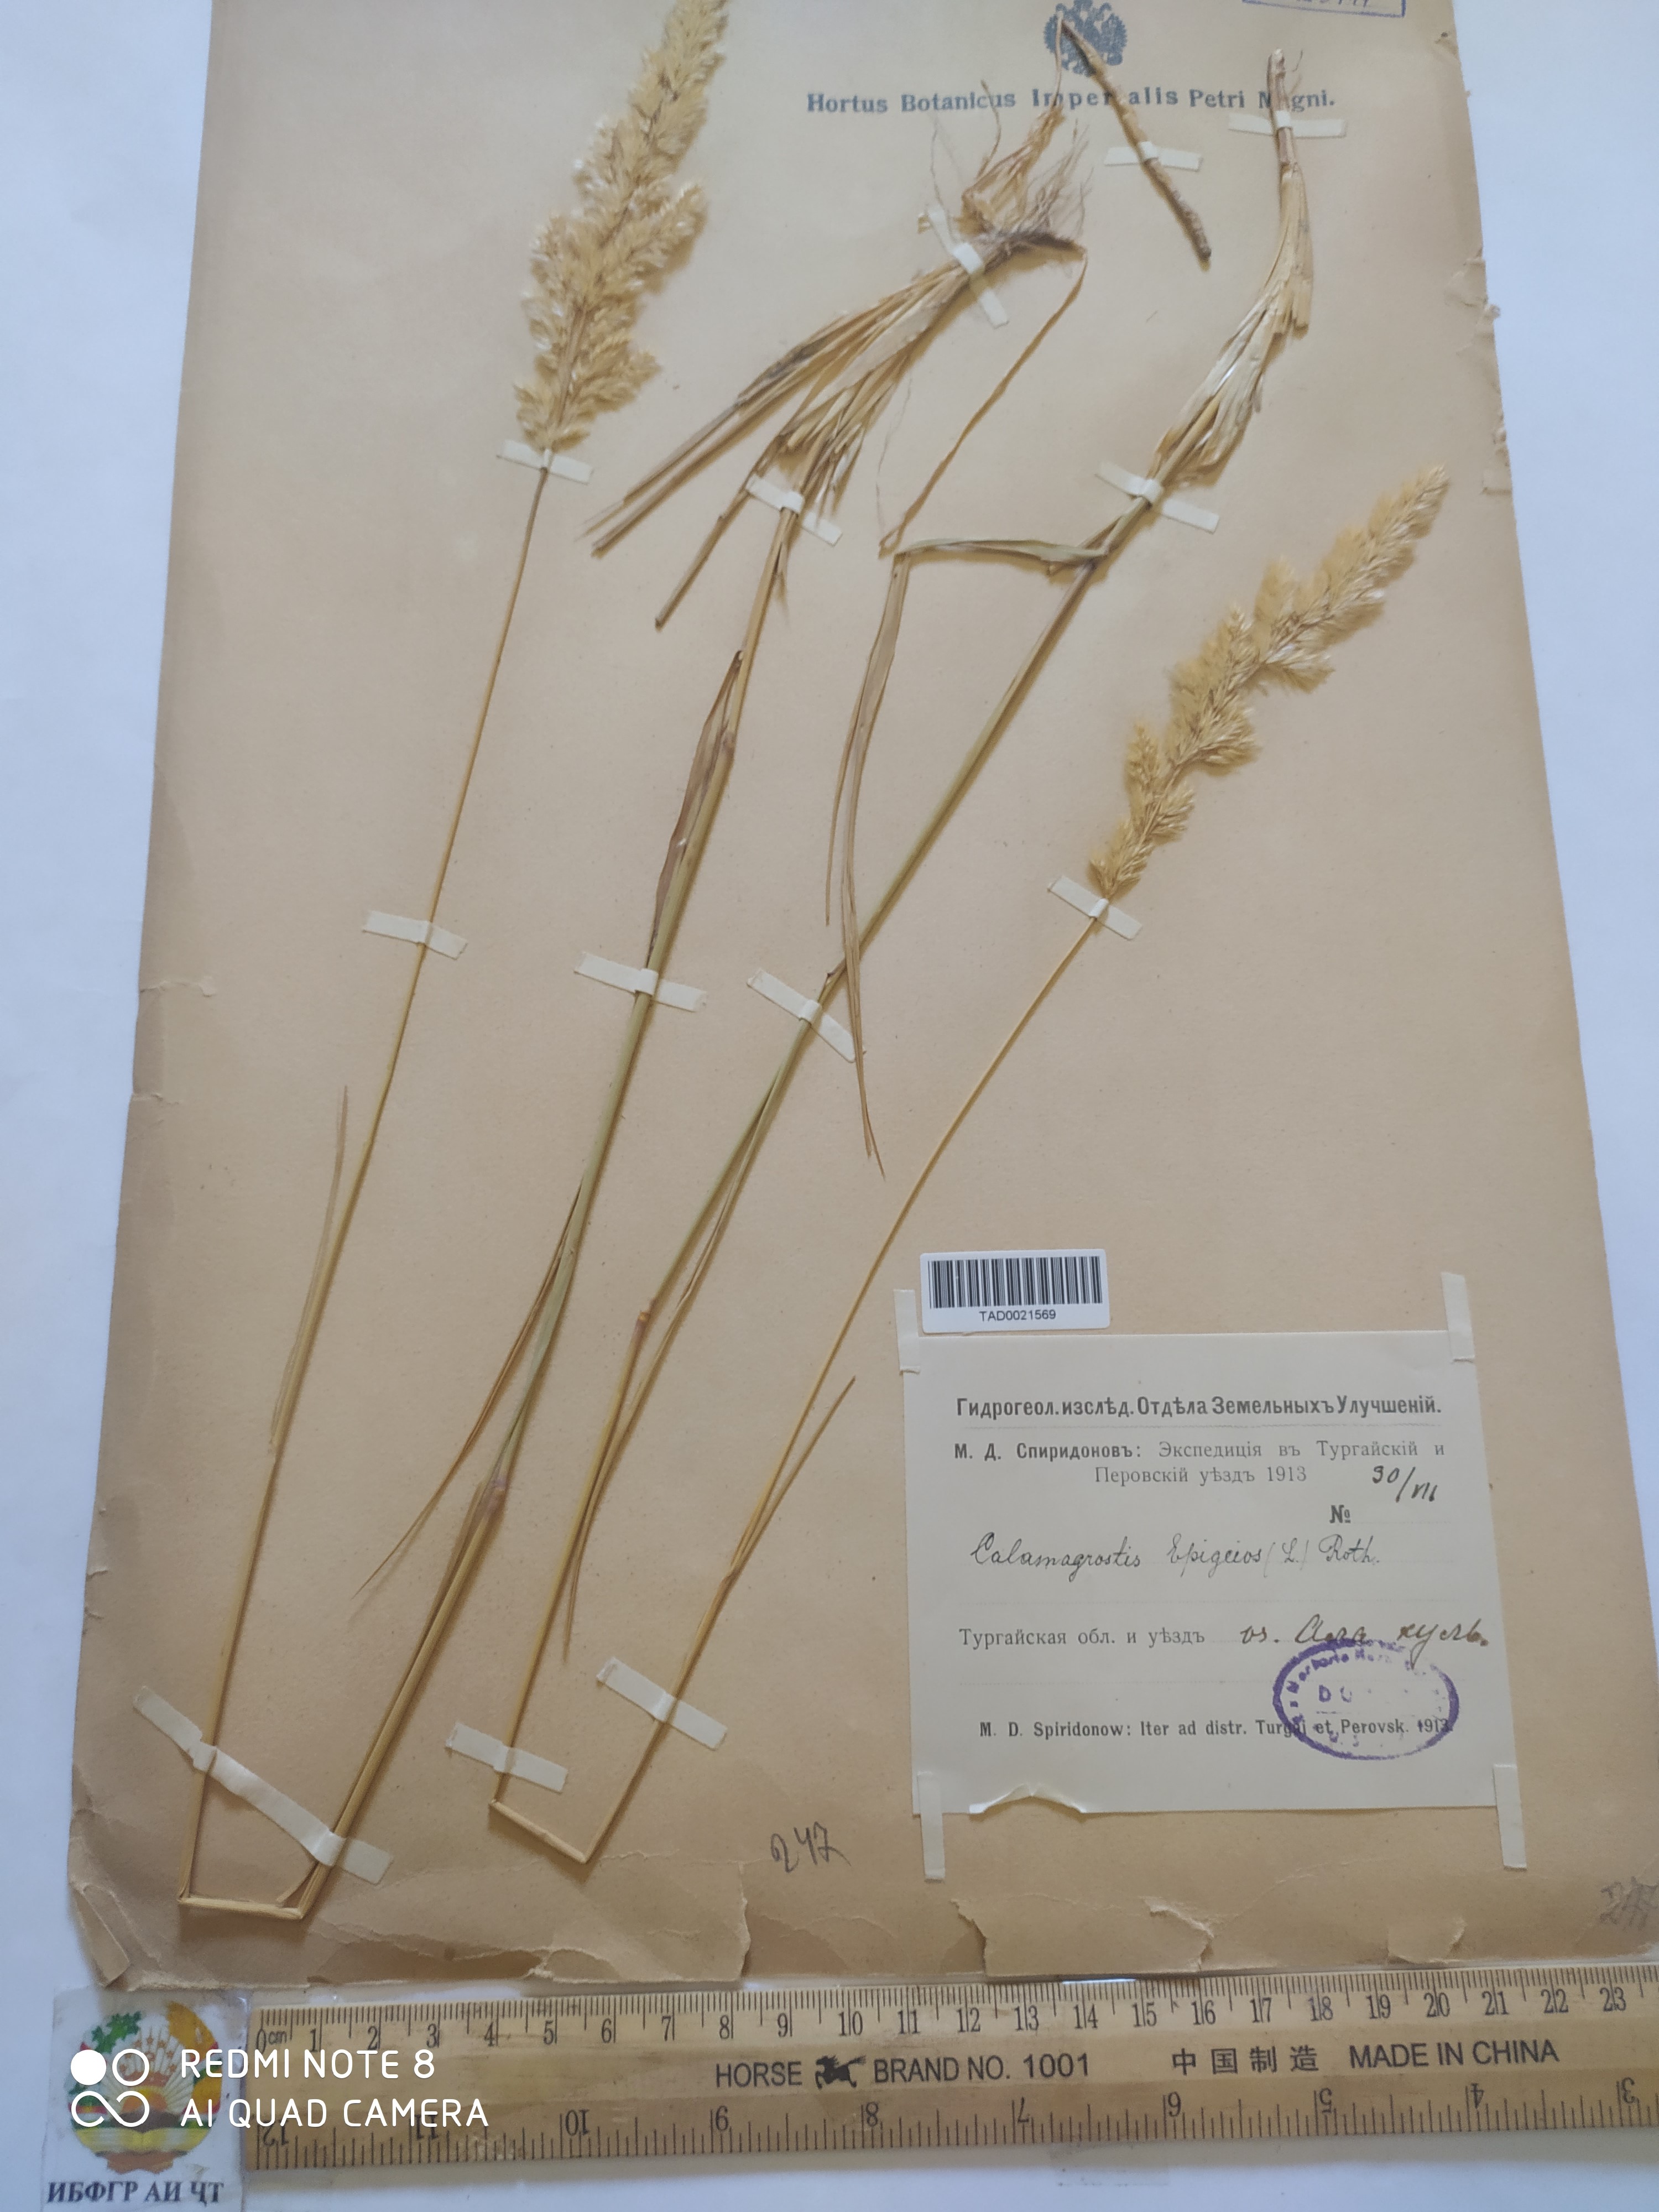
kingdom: Plantae
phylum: Tracheophyta
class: Liliopsida
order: Poales
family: Poaceae
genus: Calamagrostis
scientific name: Calamagrostis epigejos
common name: Wood small-reed
